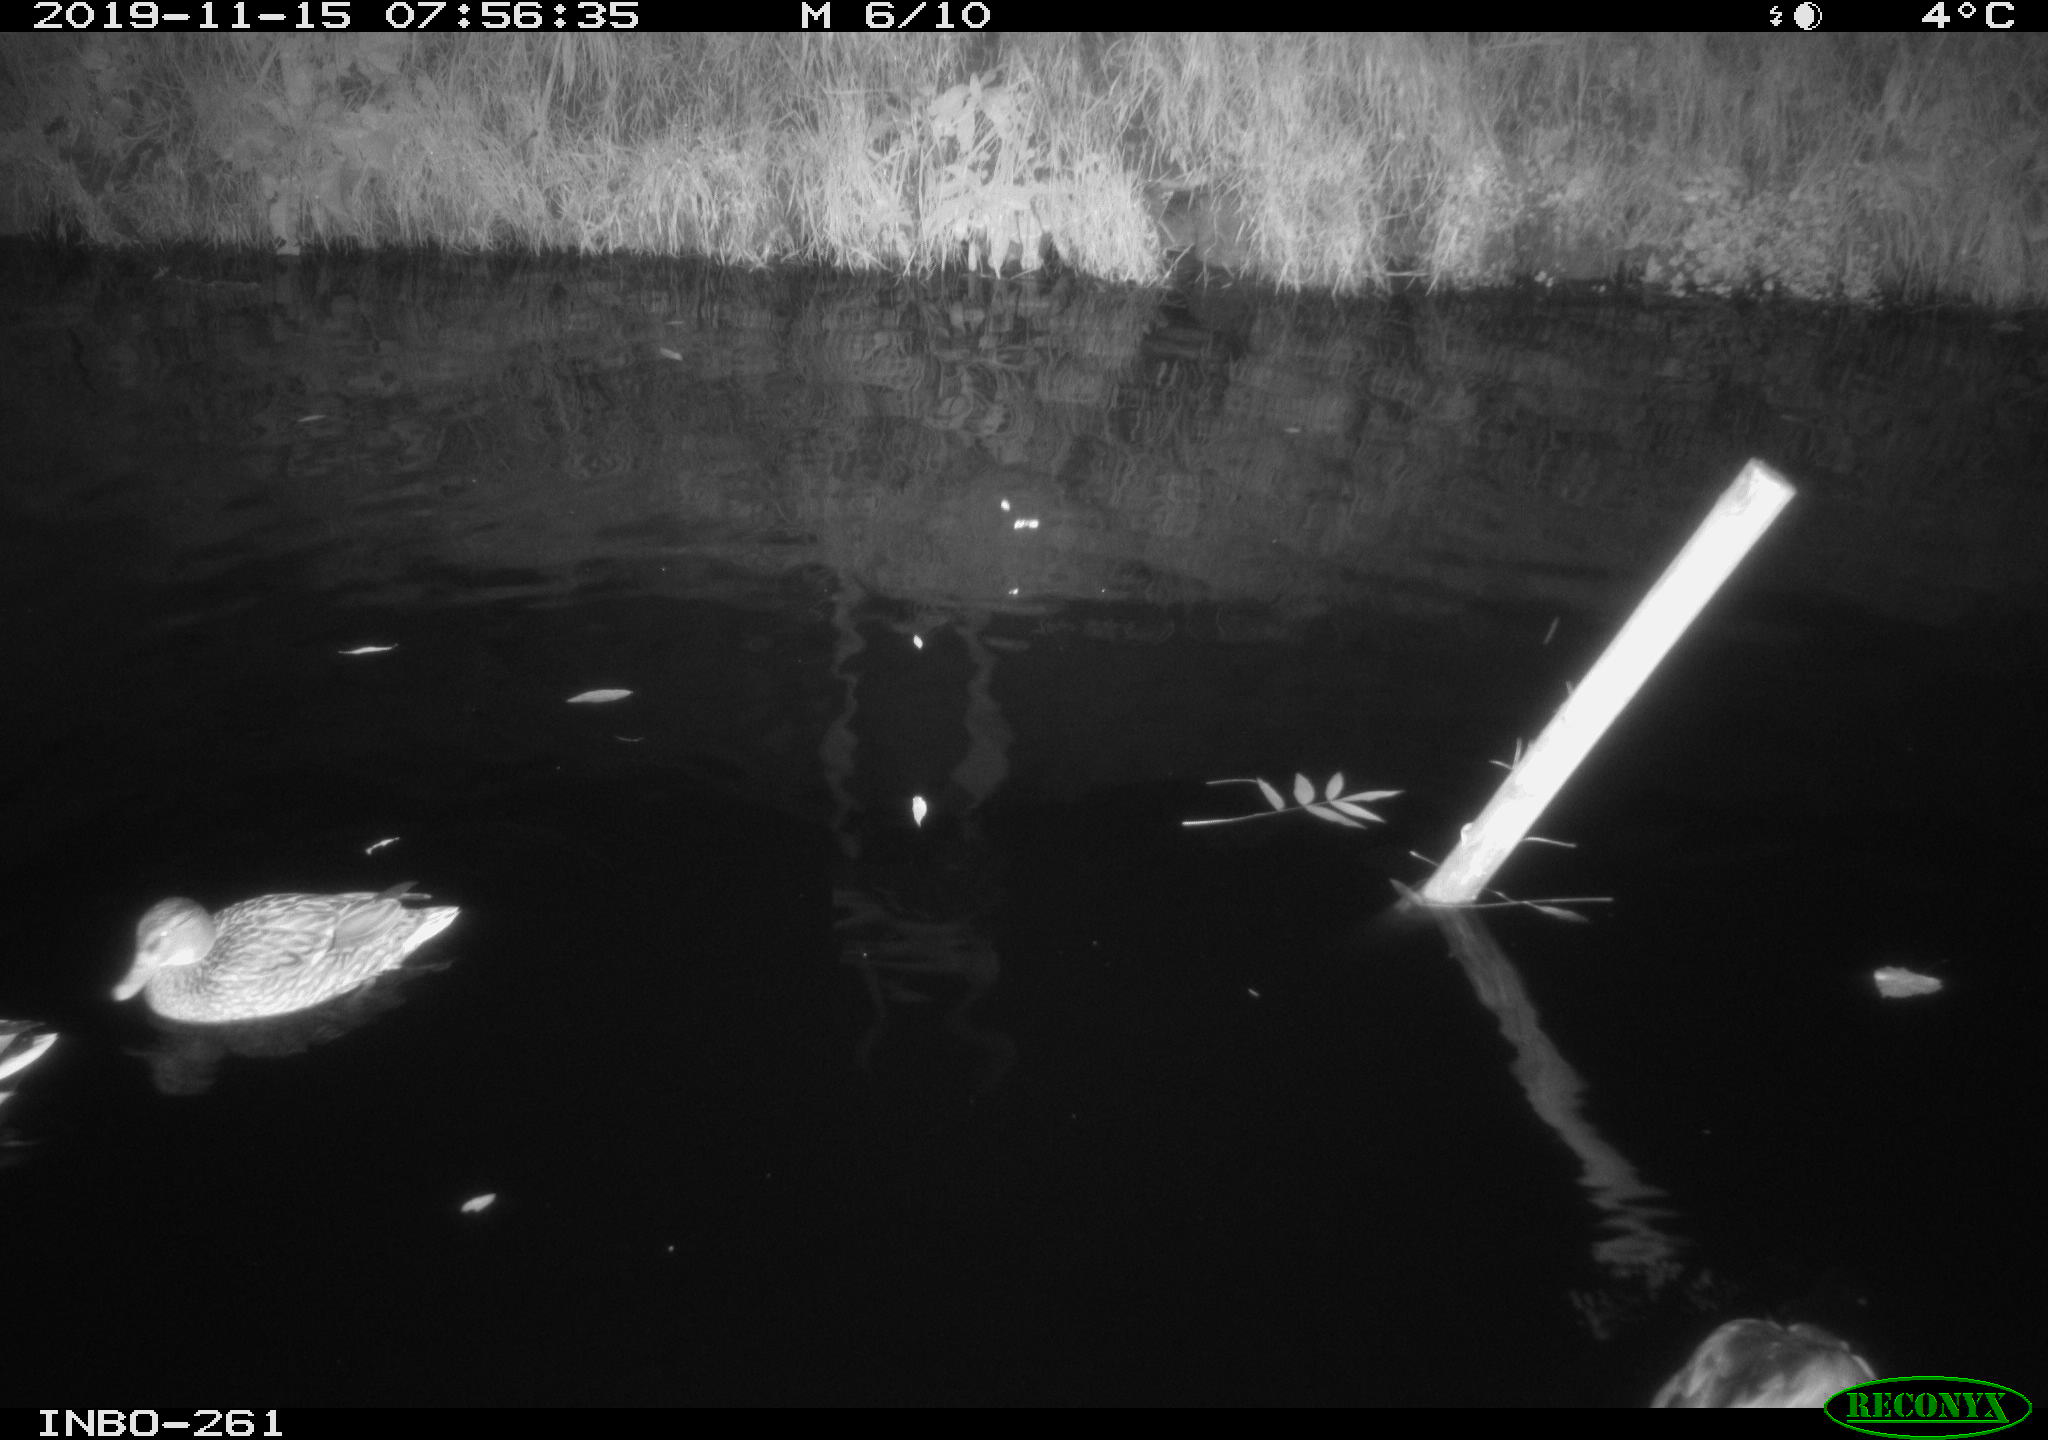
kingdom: Animalia
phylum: Chordata
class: Aves
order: Anseriformes
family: Anatidae
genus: Anas
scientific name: Anas platyrhynchos
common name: Mallard
